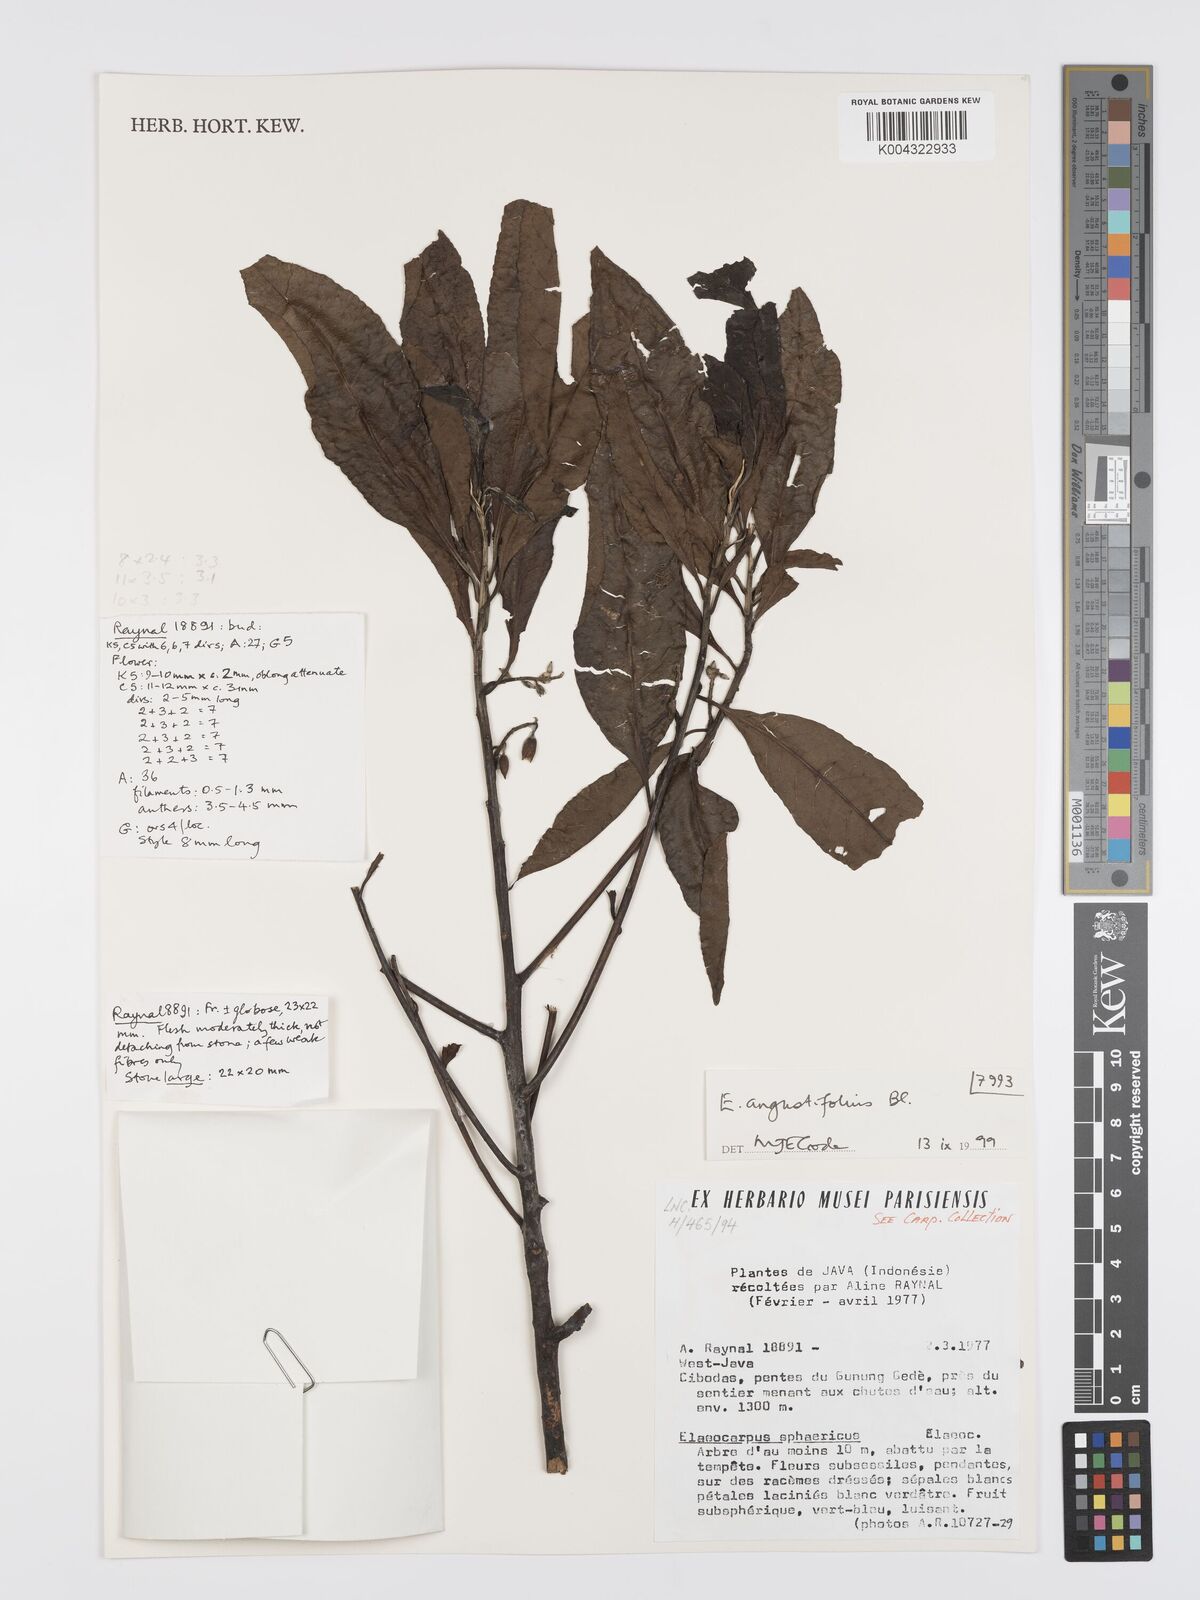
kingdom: Plantae
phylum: Tracheophyta
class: Magnoliopsida
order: Oxalidales
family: Elaeocarpaceae
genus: Elaeocarpus
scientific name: Elaeocarpus
